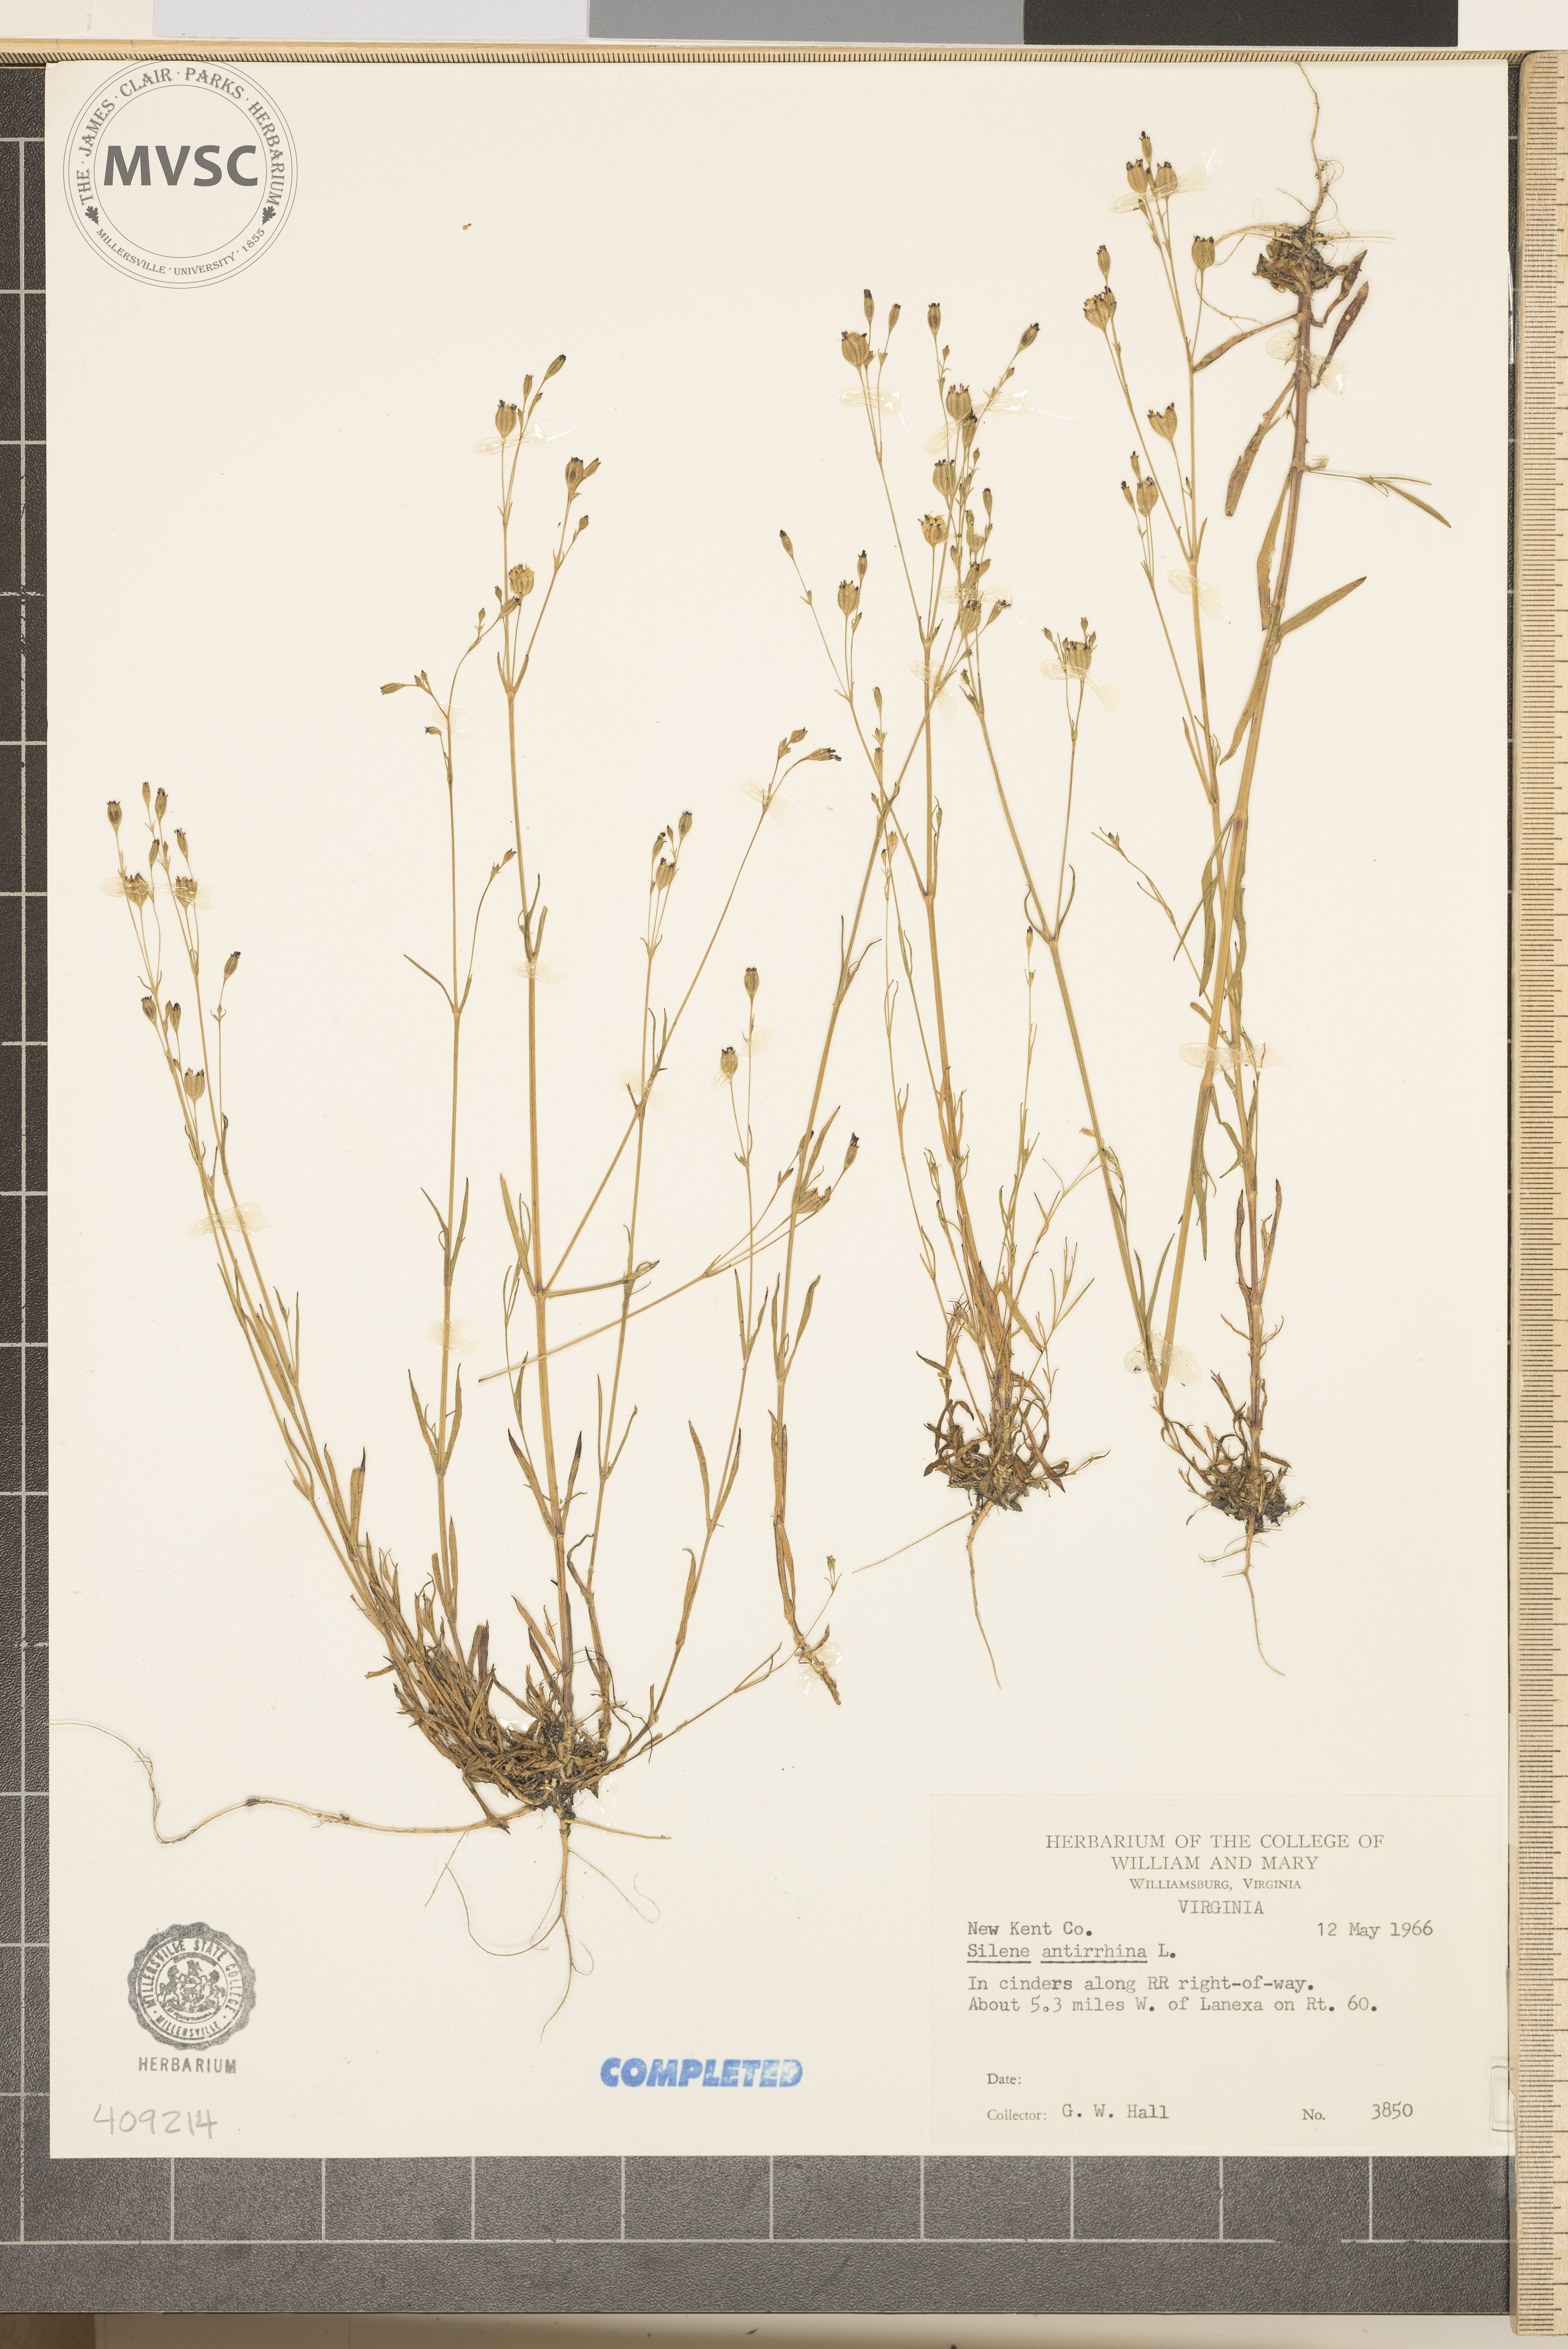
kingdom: Plantae
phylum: Tracheophyta
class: Magnoliopsida
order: Caryophyllales
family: Caryophyllaceae
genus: Silene
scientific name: Silene antirrhina
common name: Sleepy catchfly
